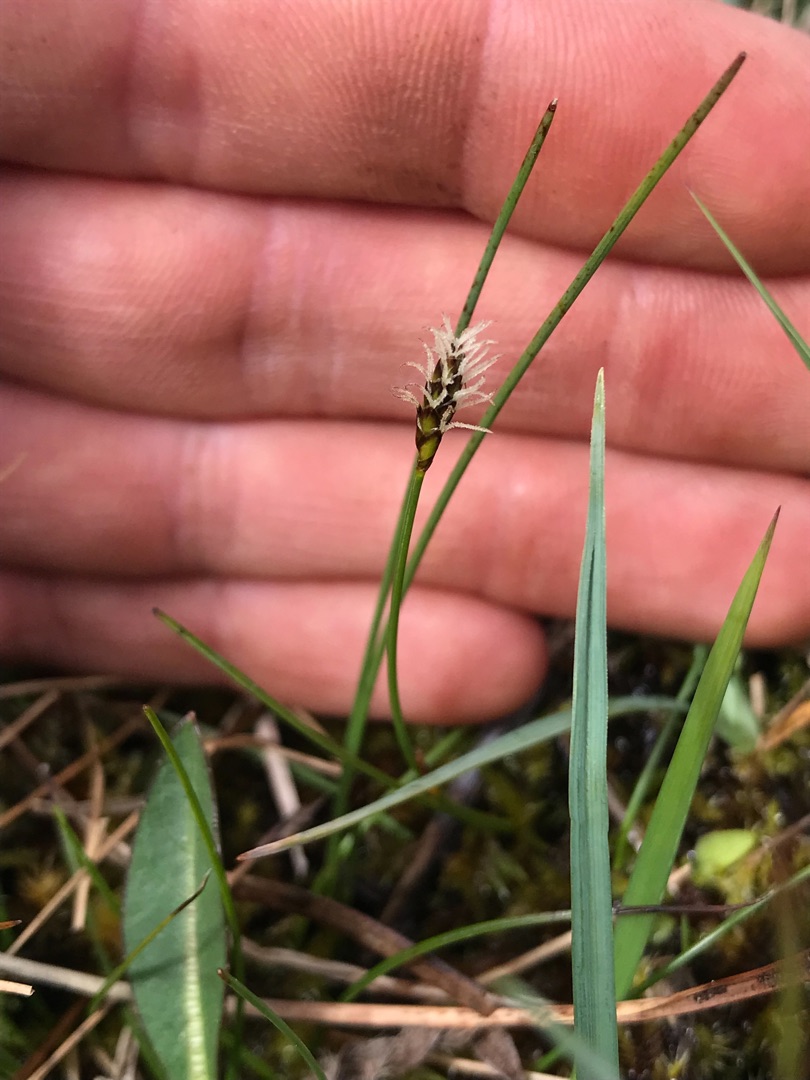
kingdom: Plantae
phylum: Tracheophyta
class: Liliopsida
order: Poales
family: Cyperaceae
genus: Carex
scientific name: Carex dioica
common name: Tvebo star
